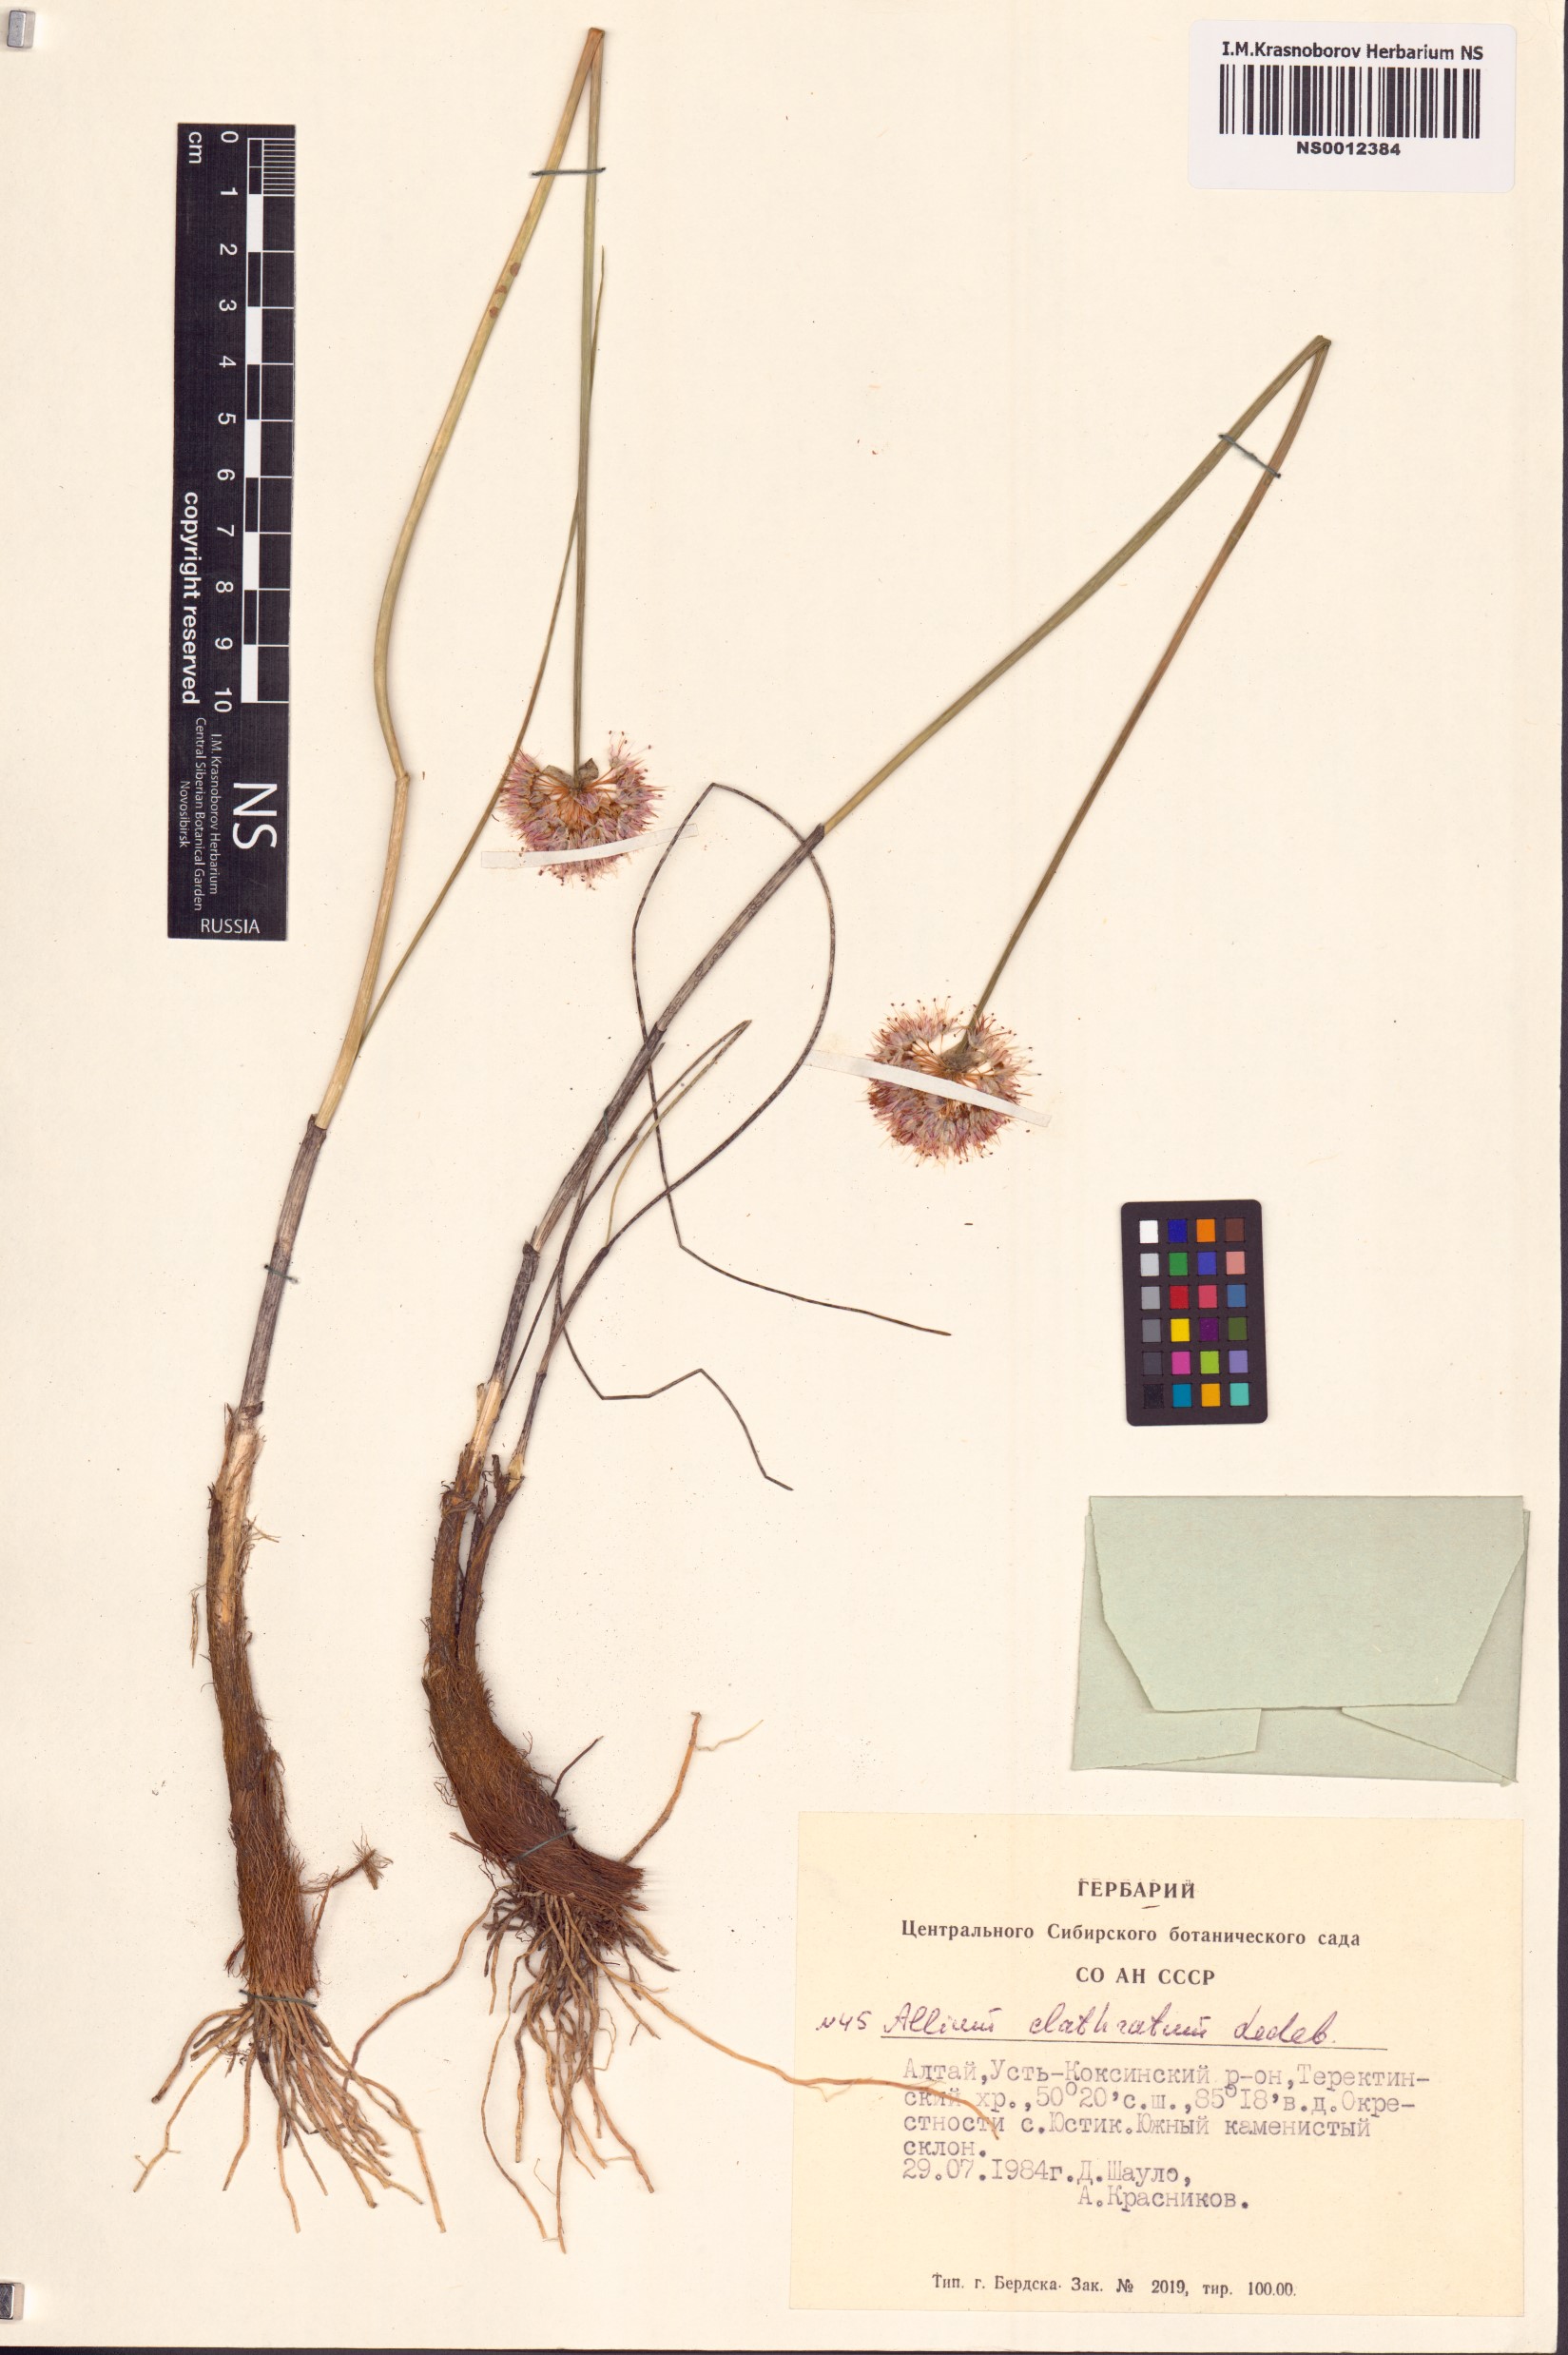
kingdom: Plantae
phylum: Tracheophyta
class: Liliopsida
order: Asparagales
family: Amaryllidaceae
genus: Allium
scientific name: Allium clathratum
